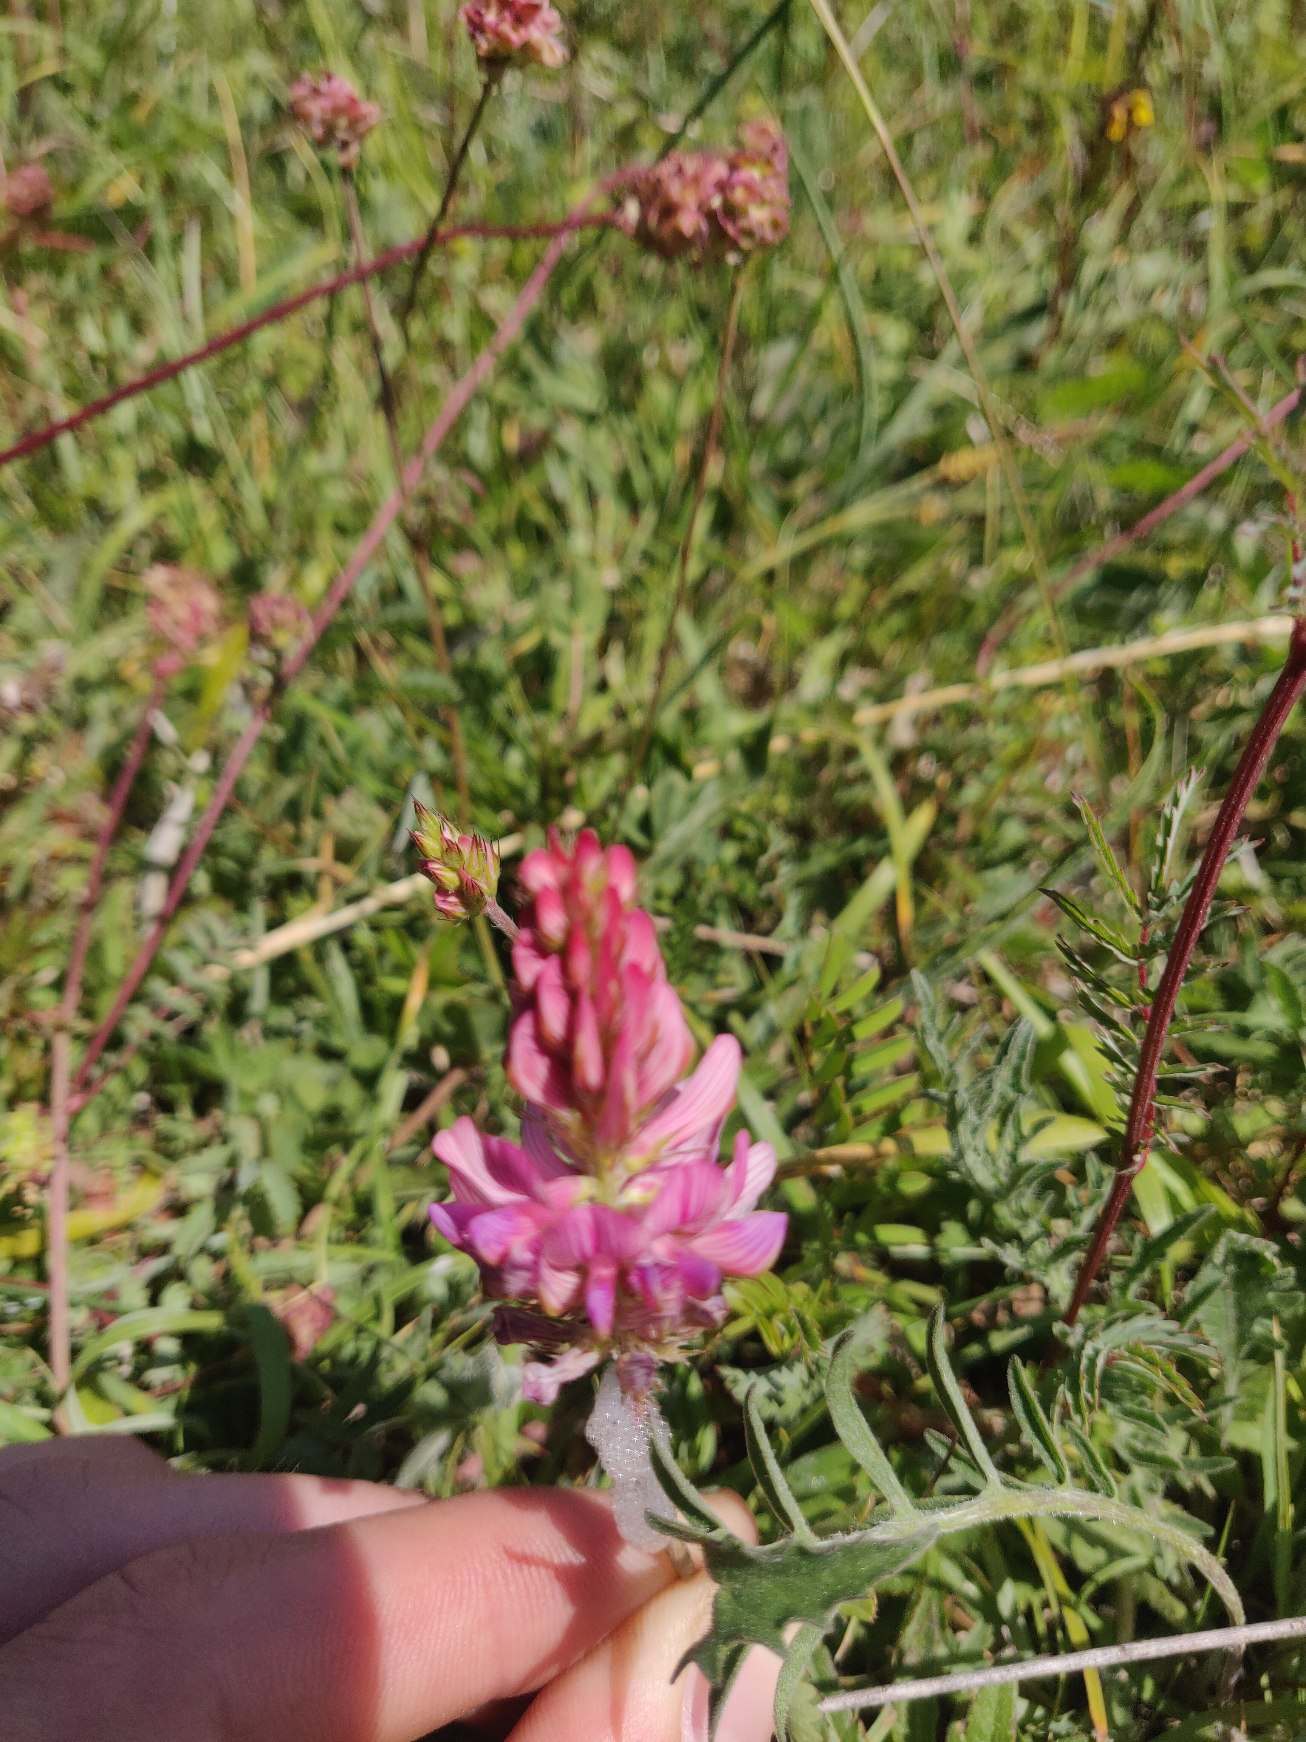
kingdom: Plantae
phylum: Tracheophyta
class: Magnoliopsida
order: Fabales
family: Fabaceae
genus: Onobrychis
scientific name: Onobrychis viciifolia
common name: Esparsette
